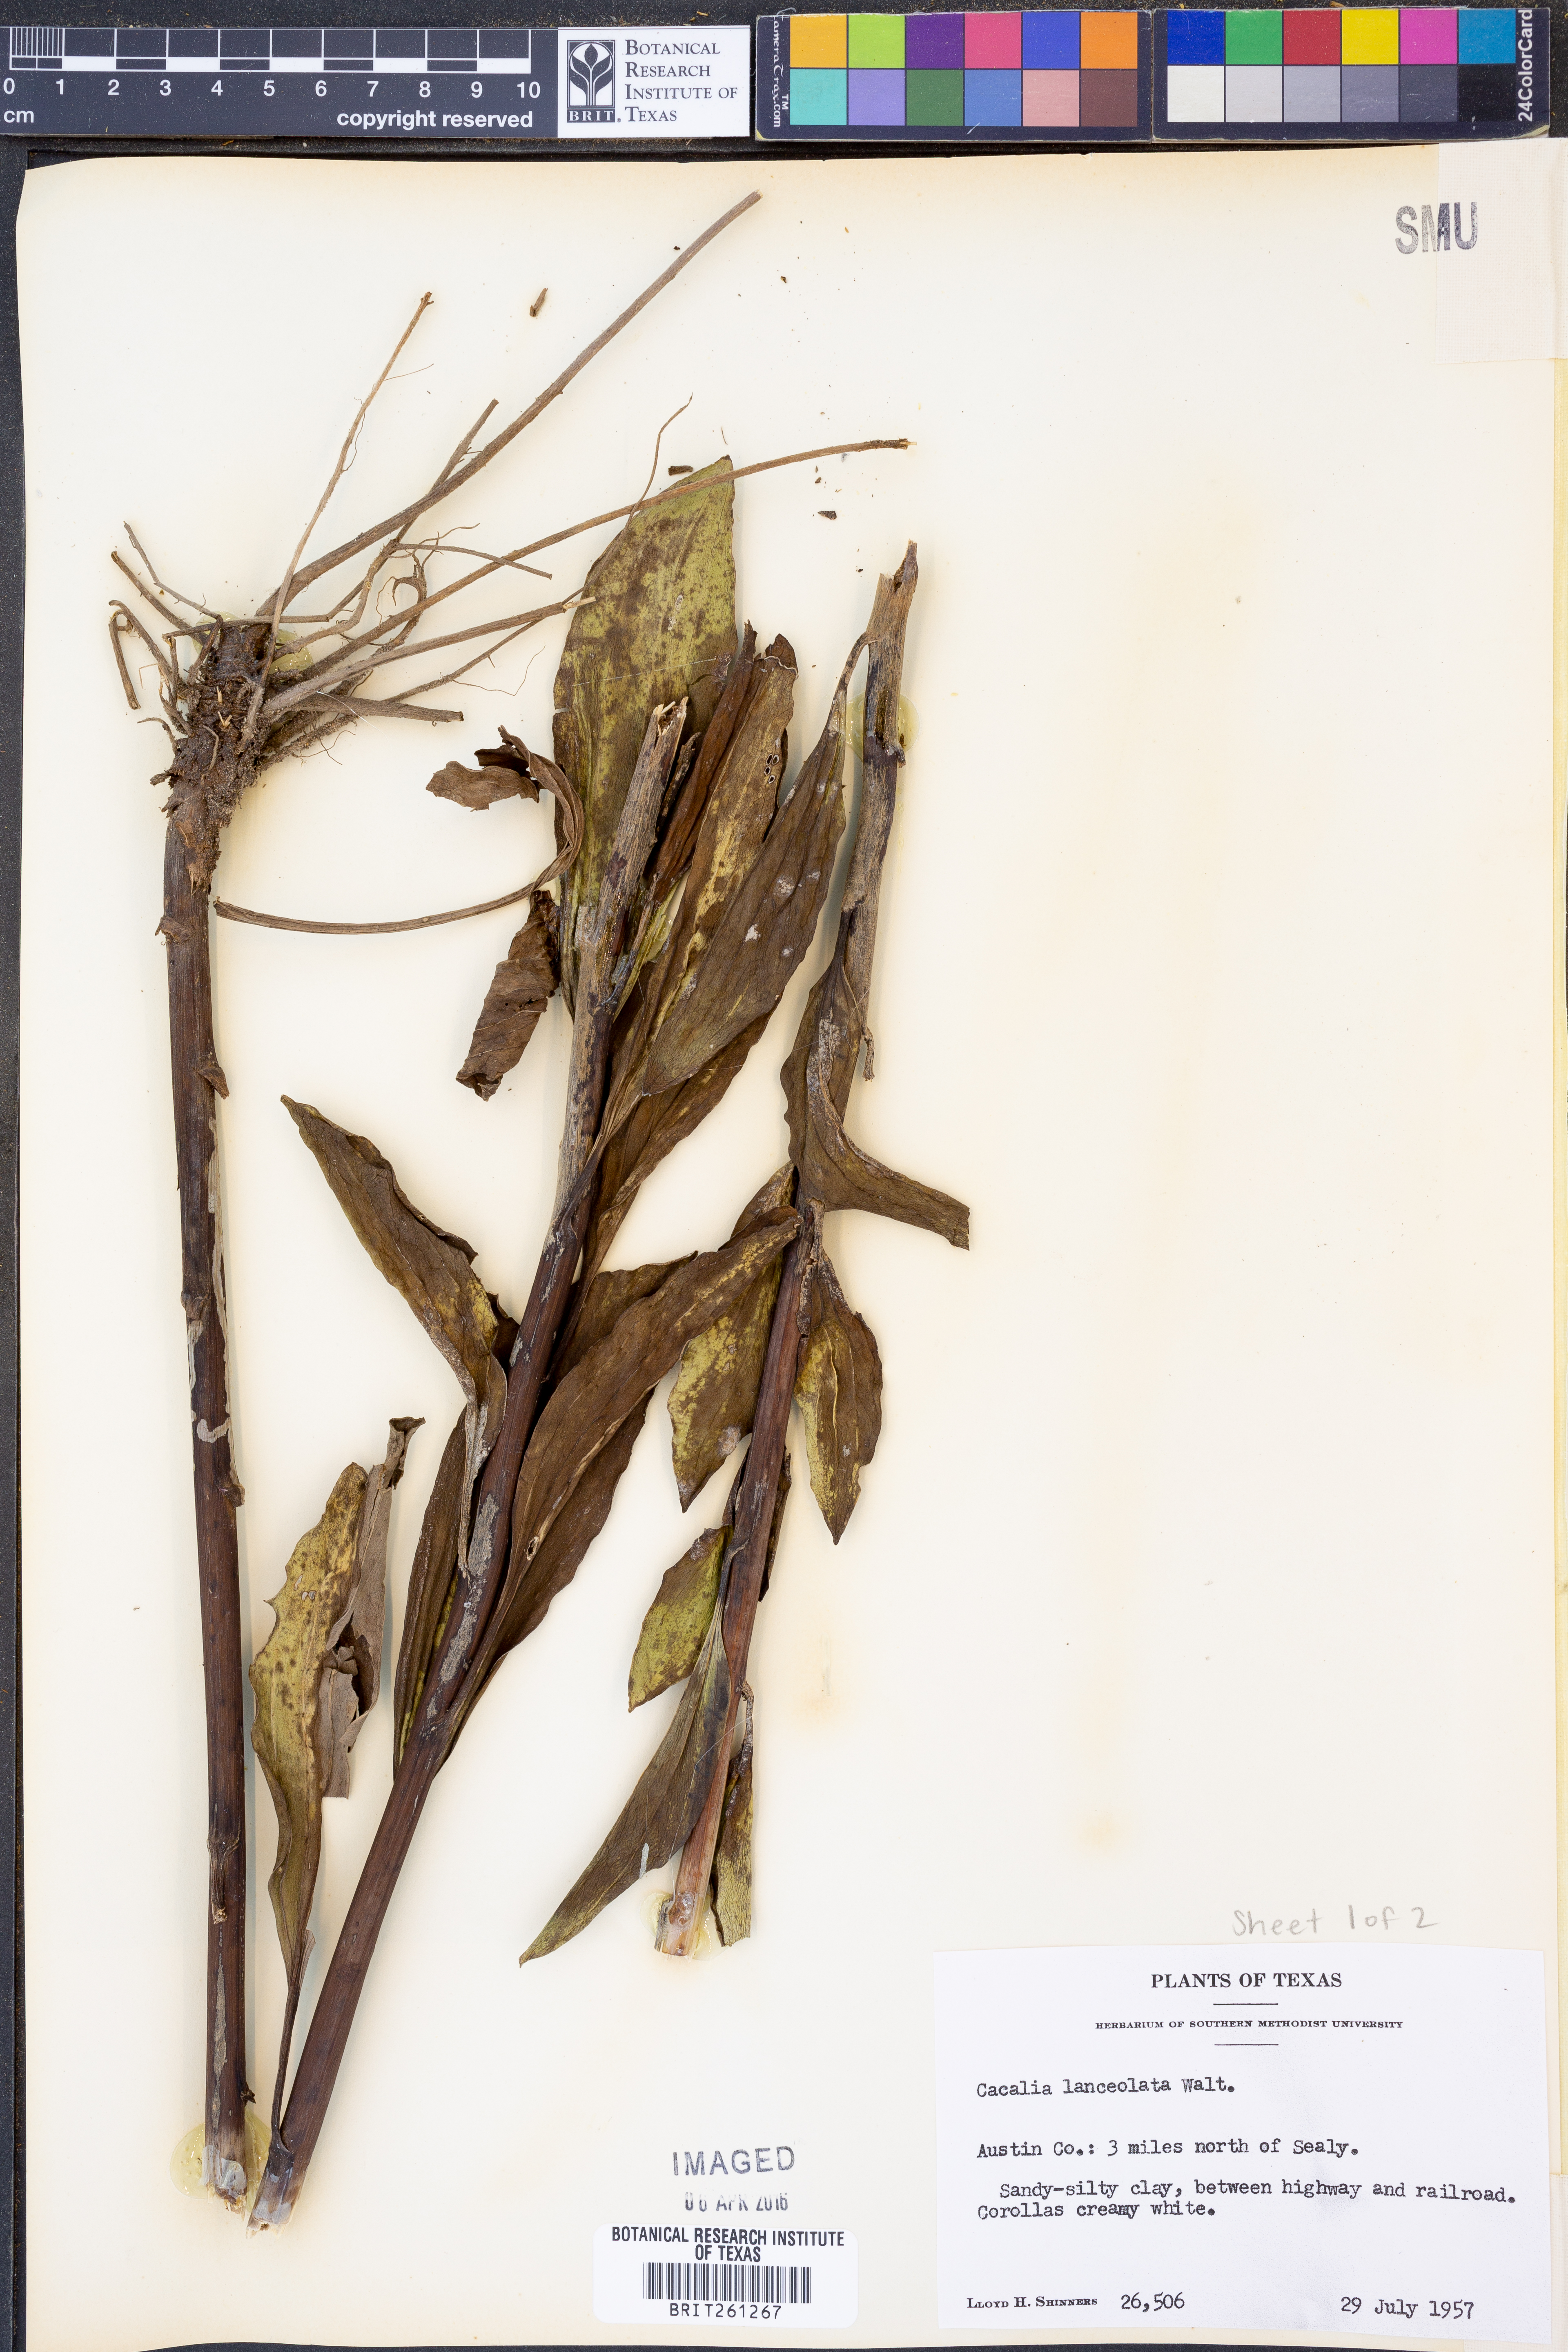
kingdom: Plantae
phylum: Tracheophyta
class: Magnoliopsida
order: Asterales
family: Asteraceae
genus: Arnoglossum
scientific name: Arnoglossum ovatum
